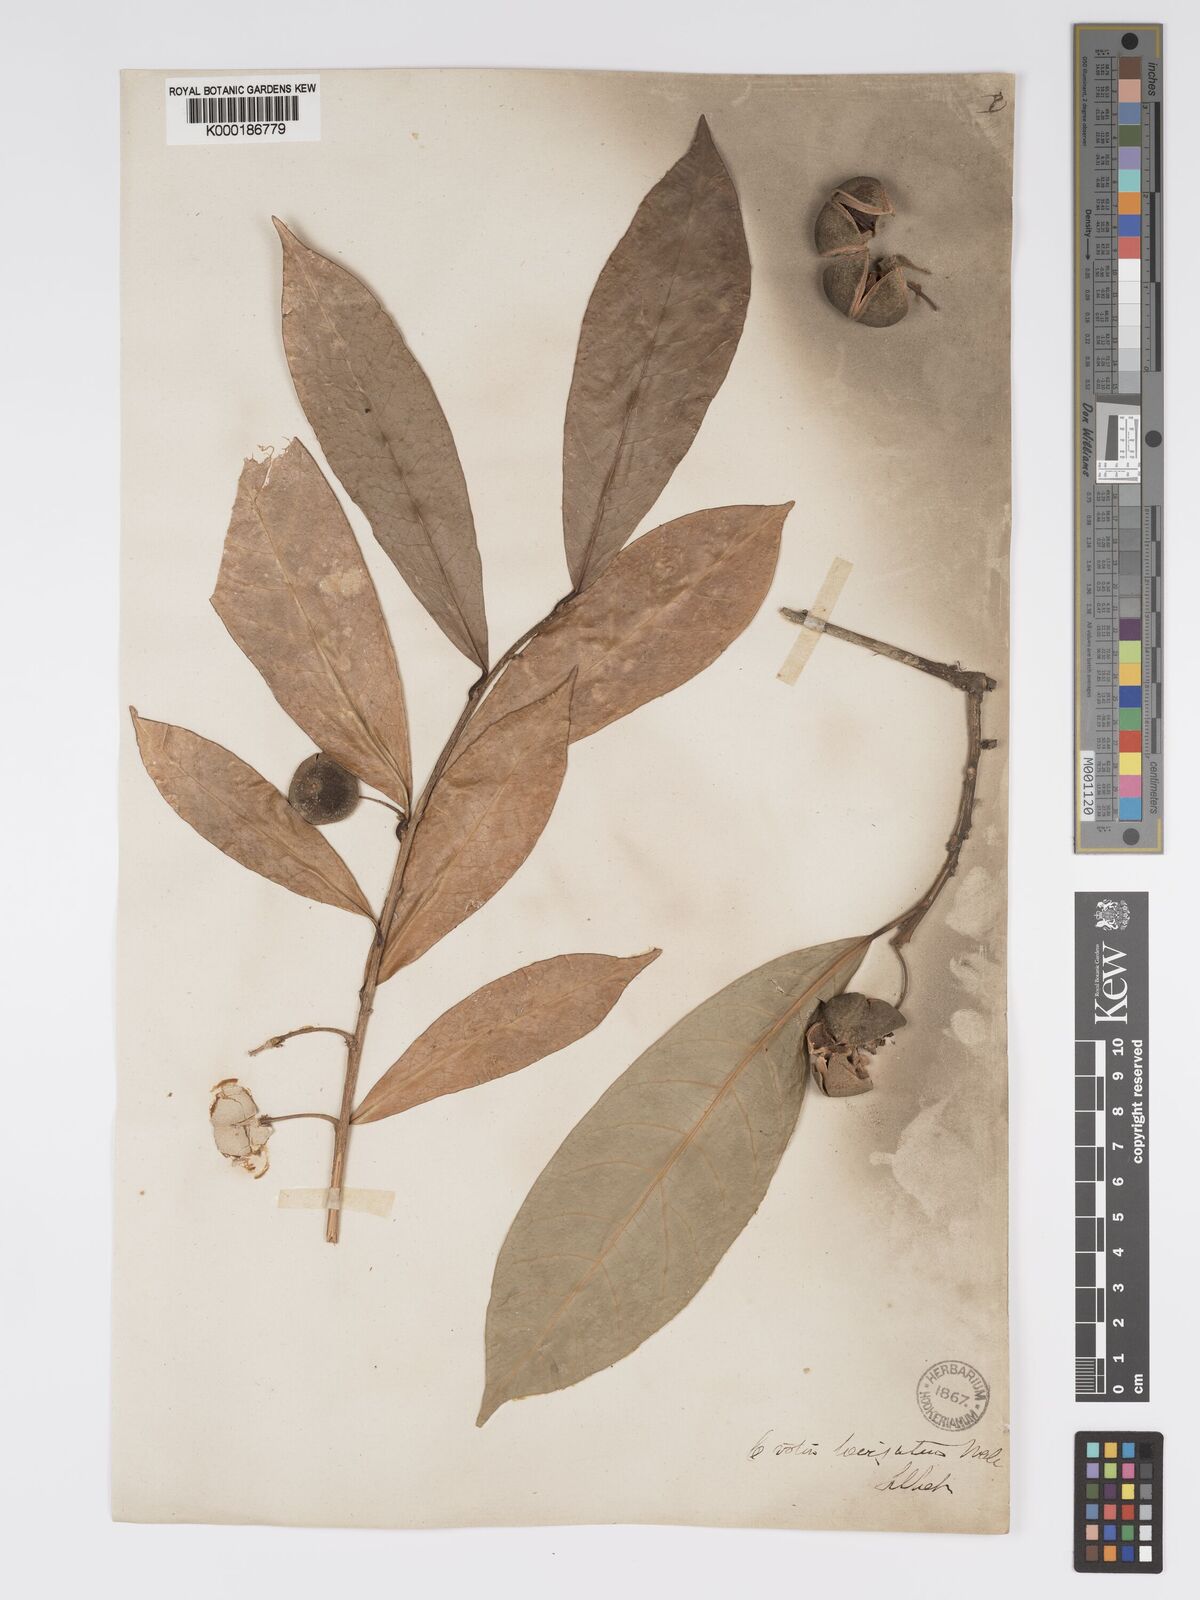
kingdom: Plantae
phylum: Tracheophyta
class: Magnoliopsida
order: Malpighiales
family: Phyllanthaceae
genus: Actephila
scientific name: Actephila excelsa
